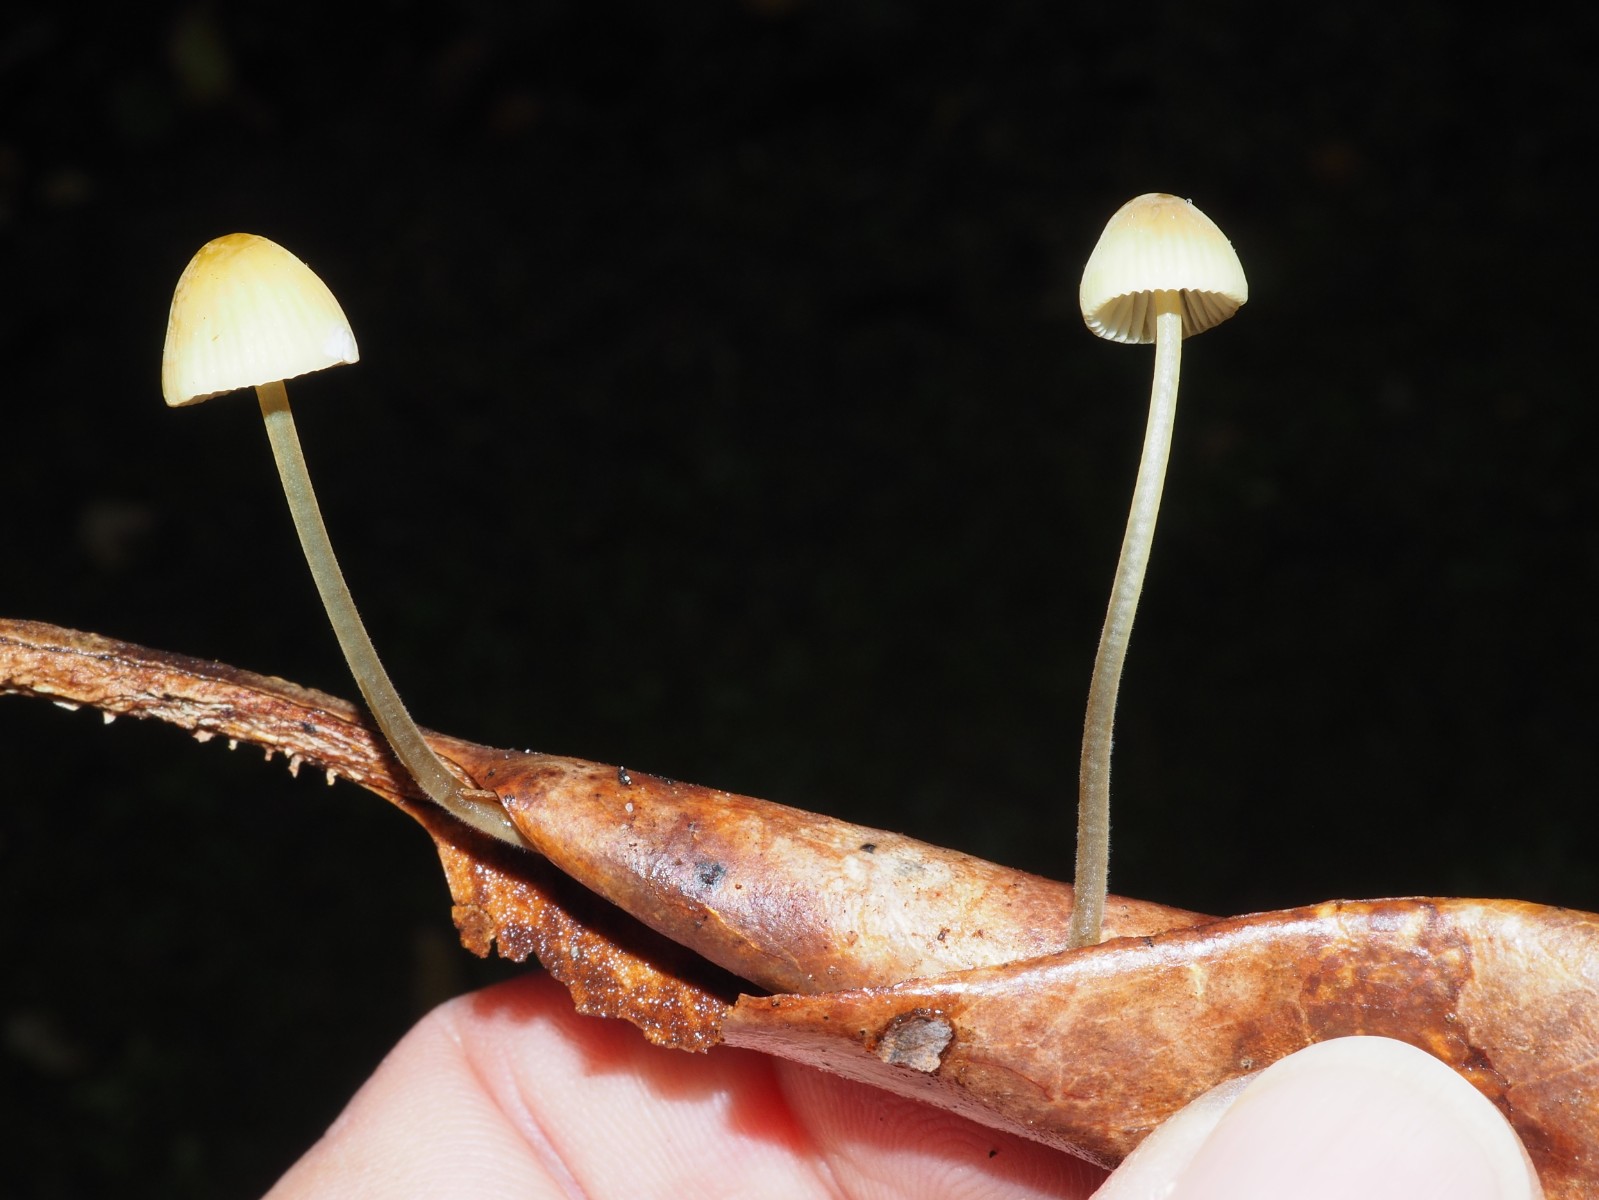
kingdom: Fungi
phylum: Basidiomycota
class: Agaricomycetes
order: Agaricales
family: Mycenaceae
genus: Mycena
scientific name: Mycena citrinomarginata
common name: gulægget huesvamp
